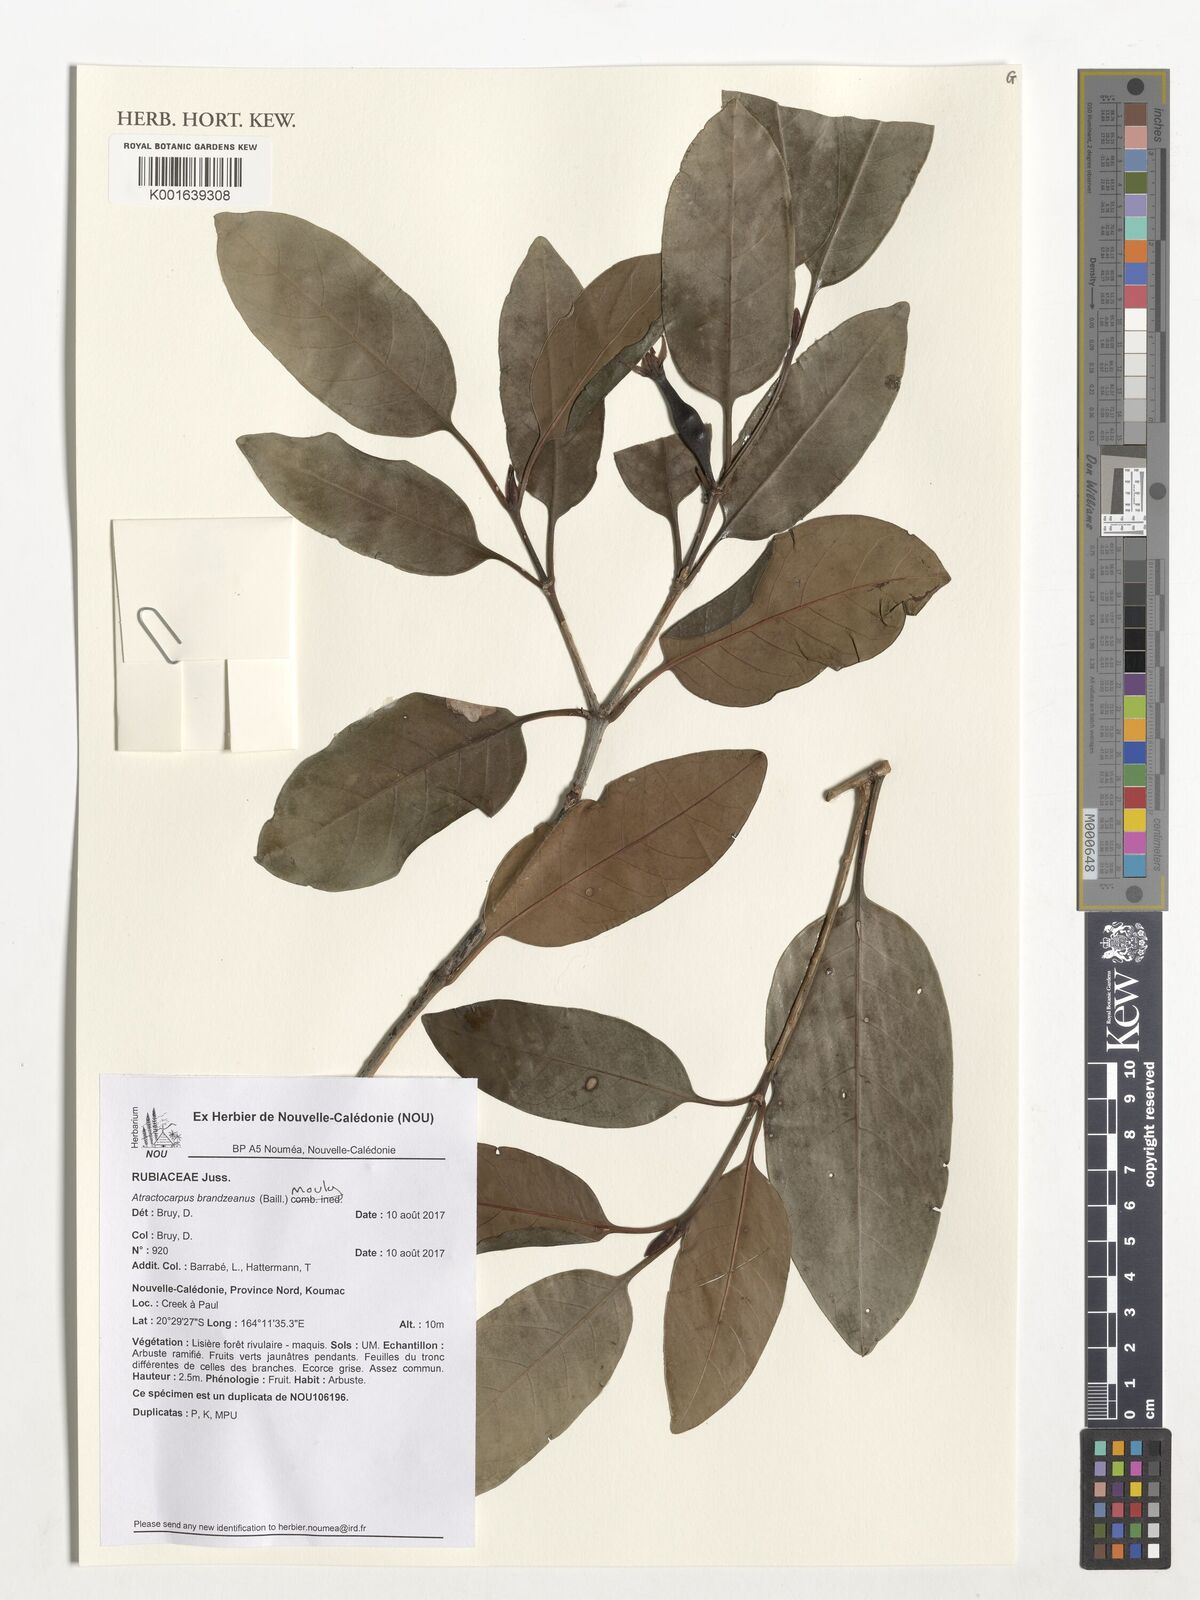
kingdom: Plantae
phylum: Tracheophyta
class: Magnoliopsida
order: Gentianales
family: Rubiaceae
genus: Atractocarpus
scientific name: Atractocarpus
